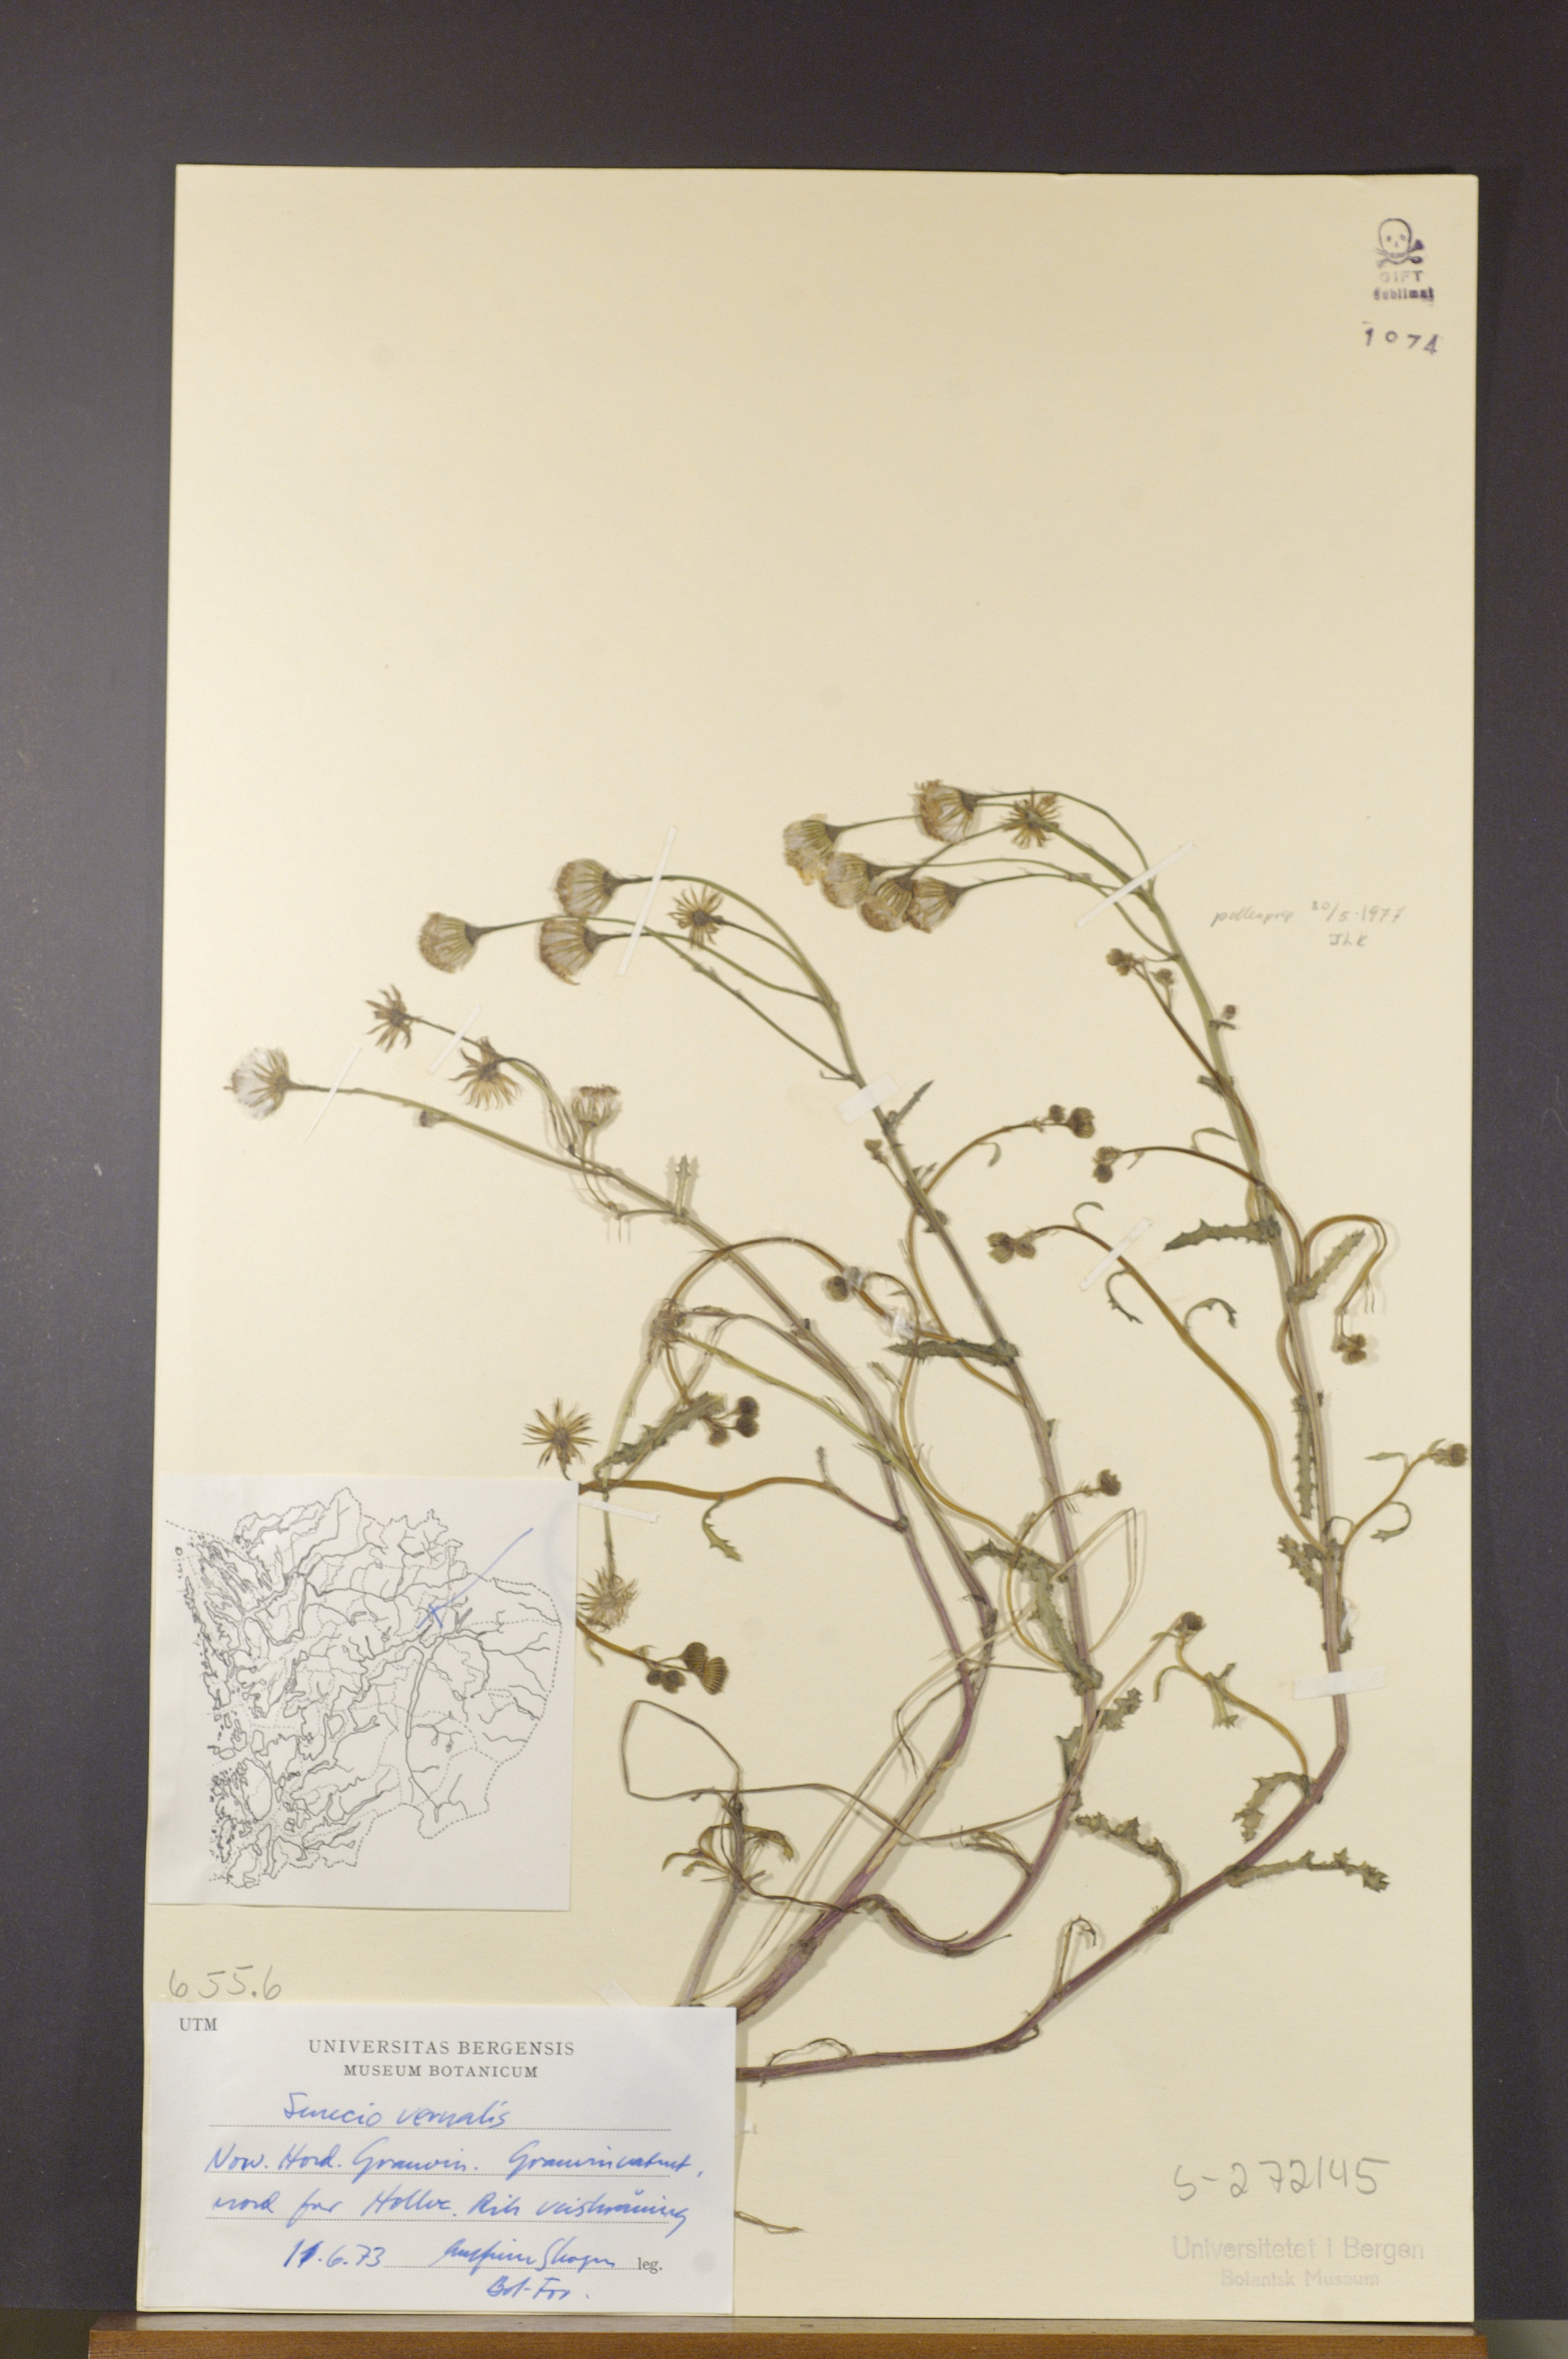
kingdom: Plantae
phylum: Tracheophyta
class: Magnoliopsida
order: Asterales
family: Asteraceae
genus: Senecio
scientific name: Senecio vernalis
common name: Eastern groundsel
